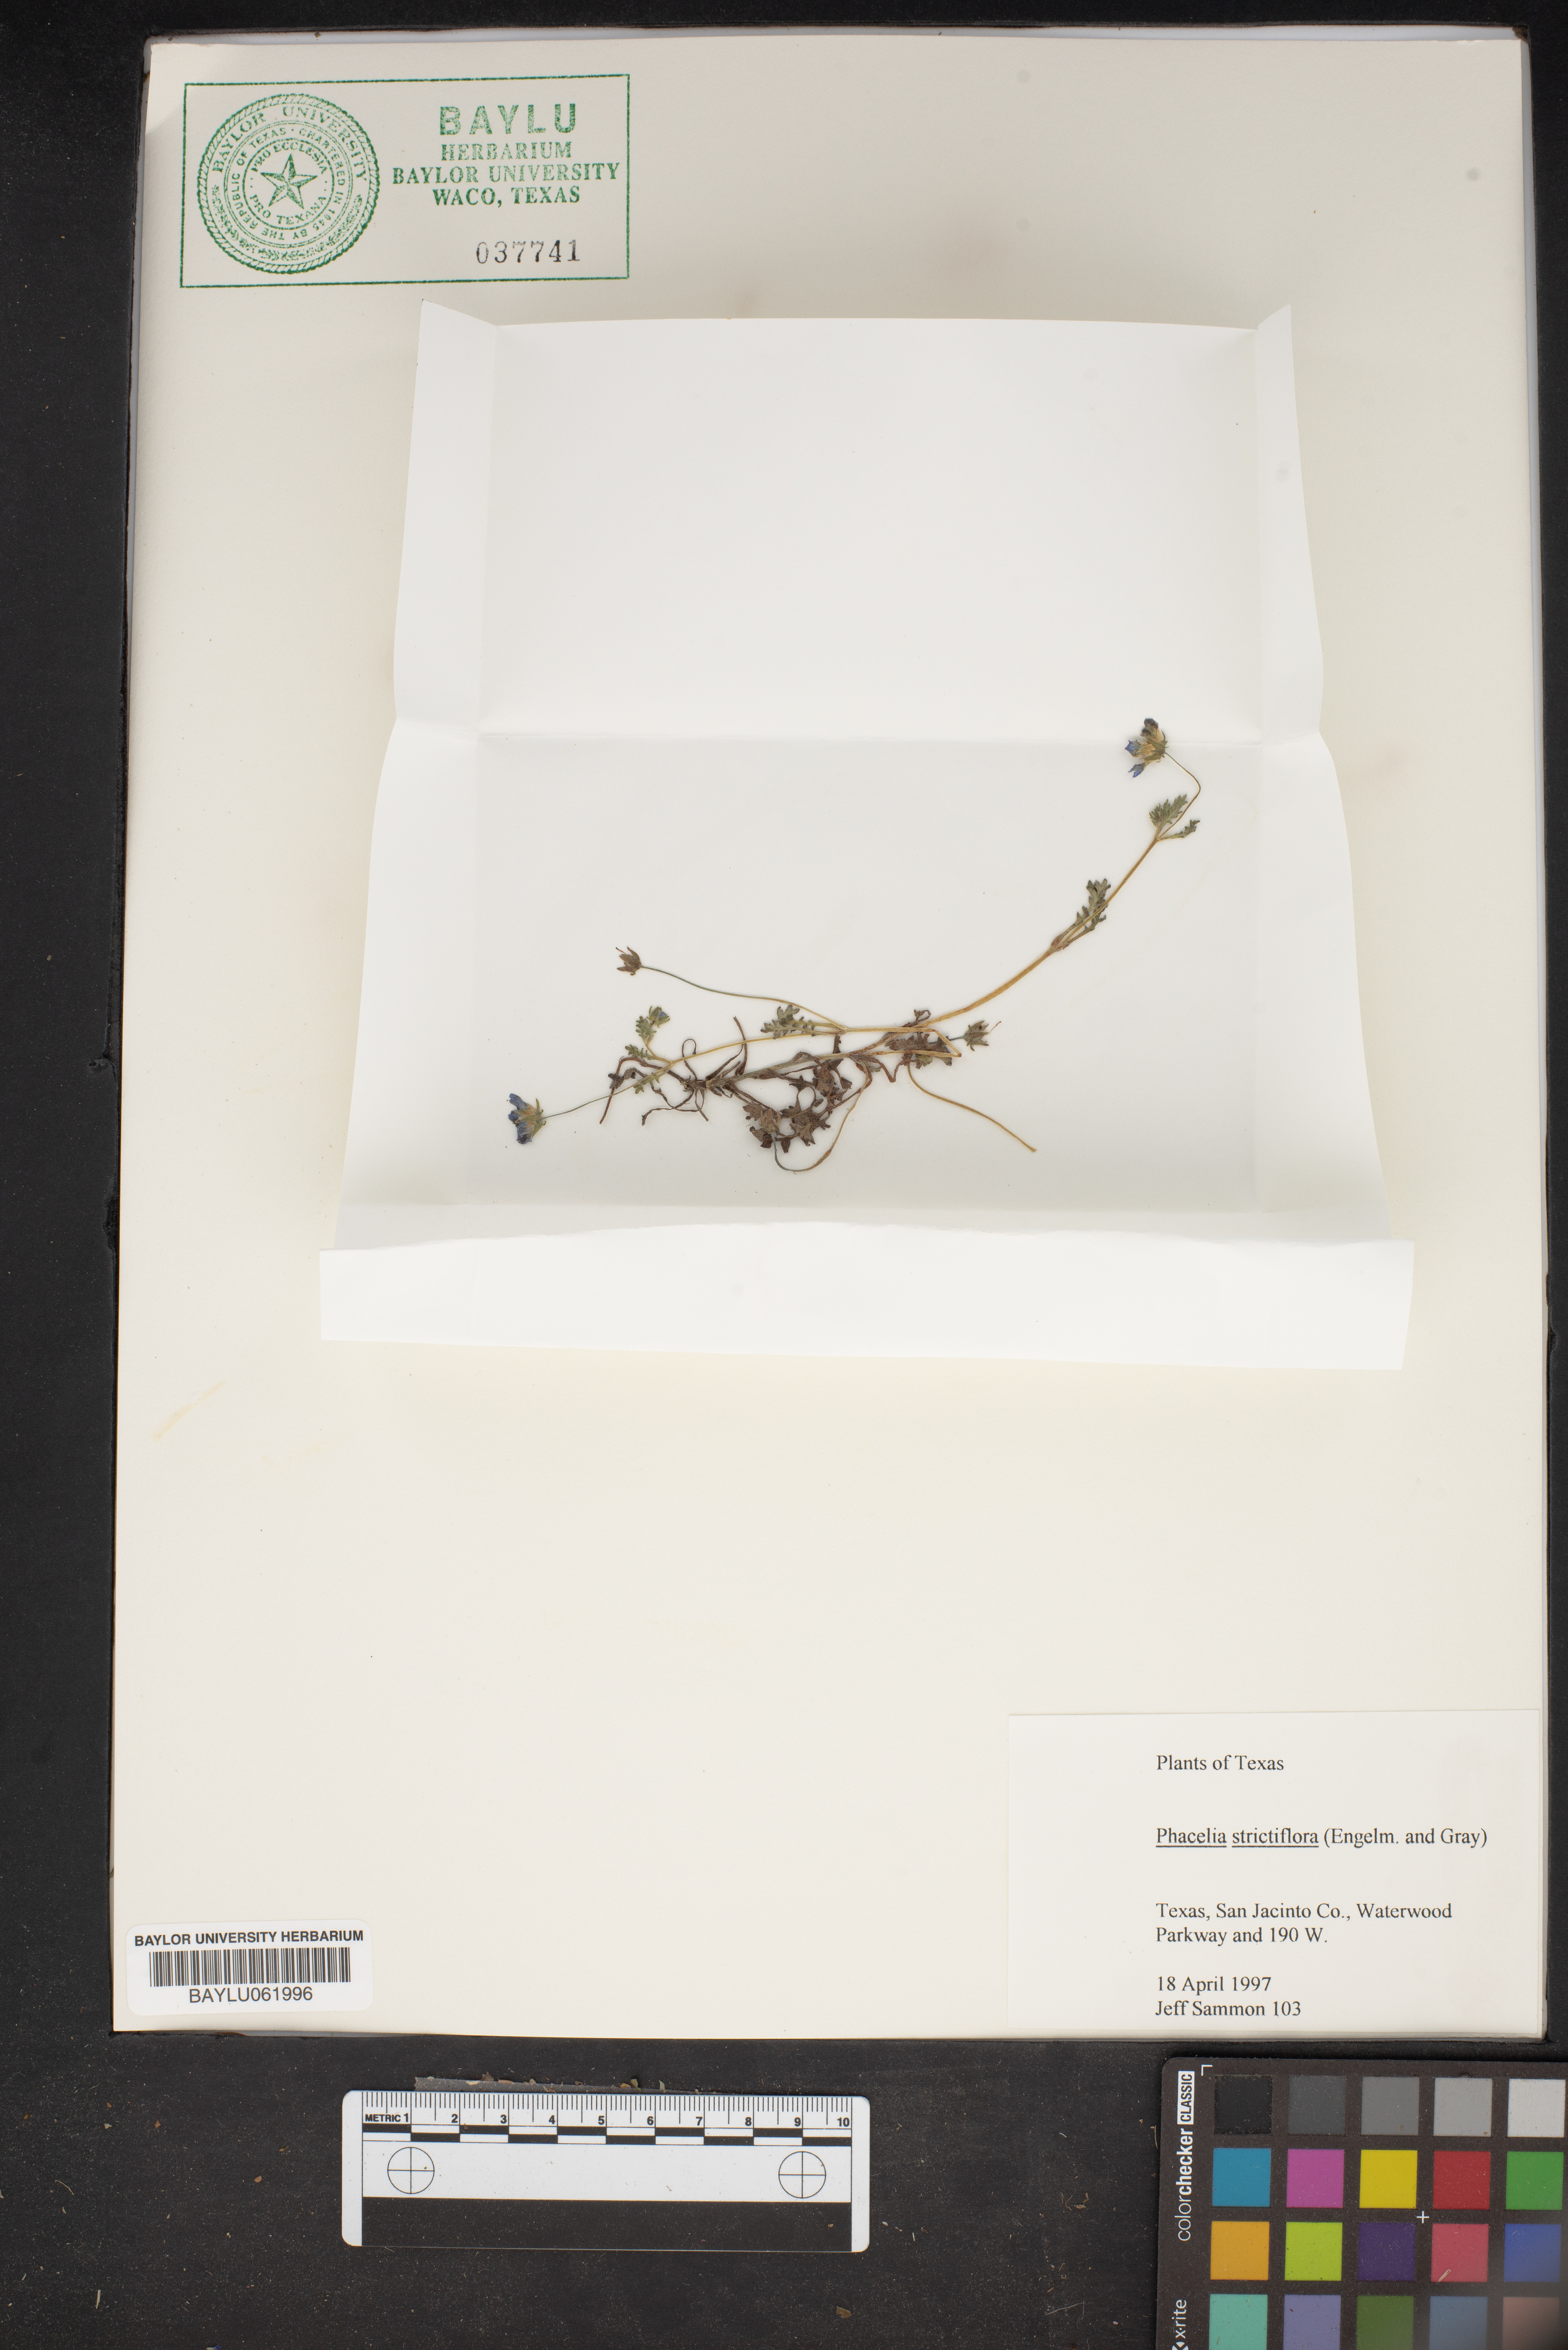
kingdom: Plantae
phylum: Tracheophyta
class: Magnoliopsida
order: Boraginales
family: Hydrophyllaceae
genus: Phacelia
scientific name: Phacelia strictiflora
